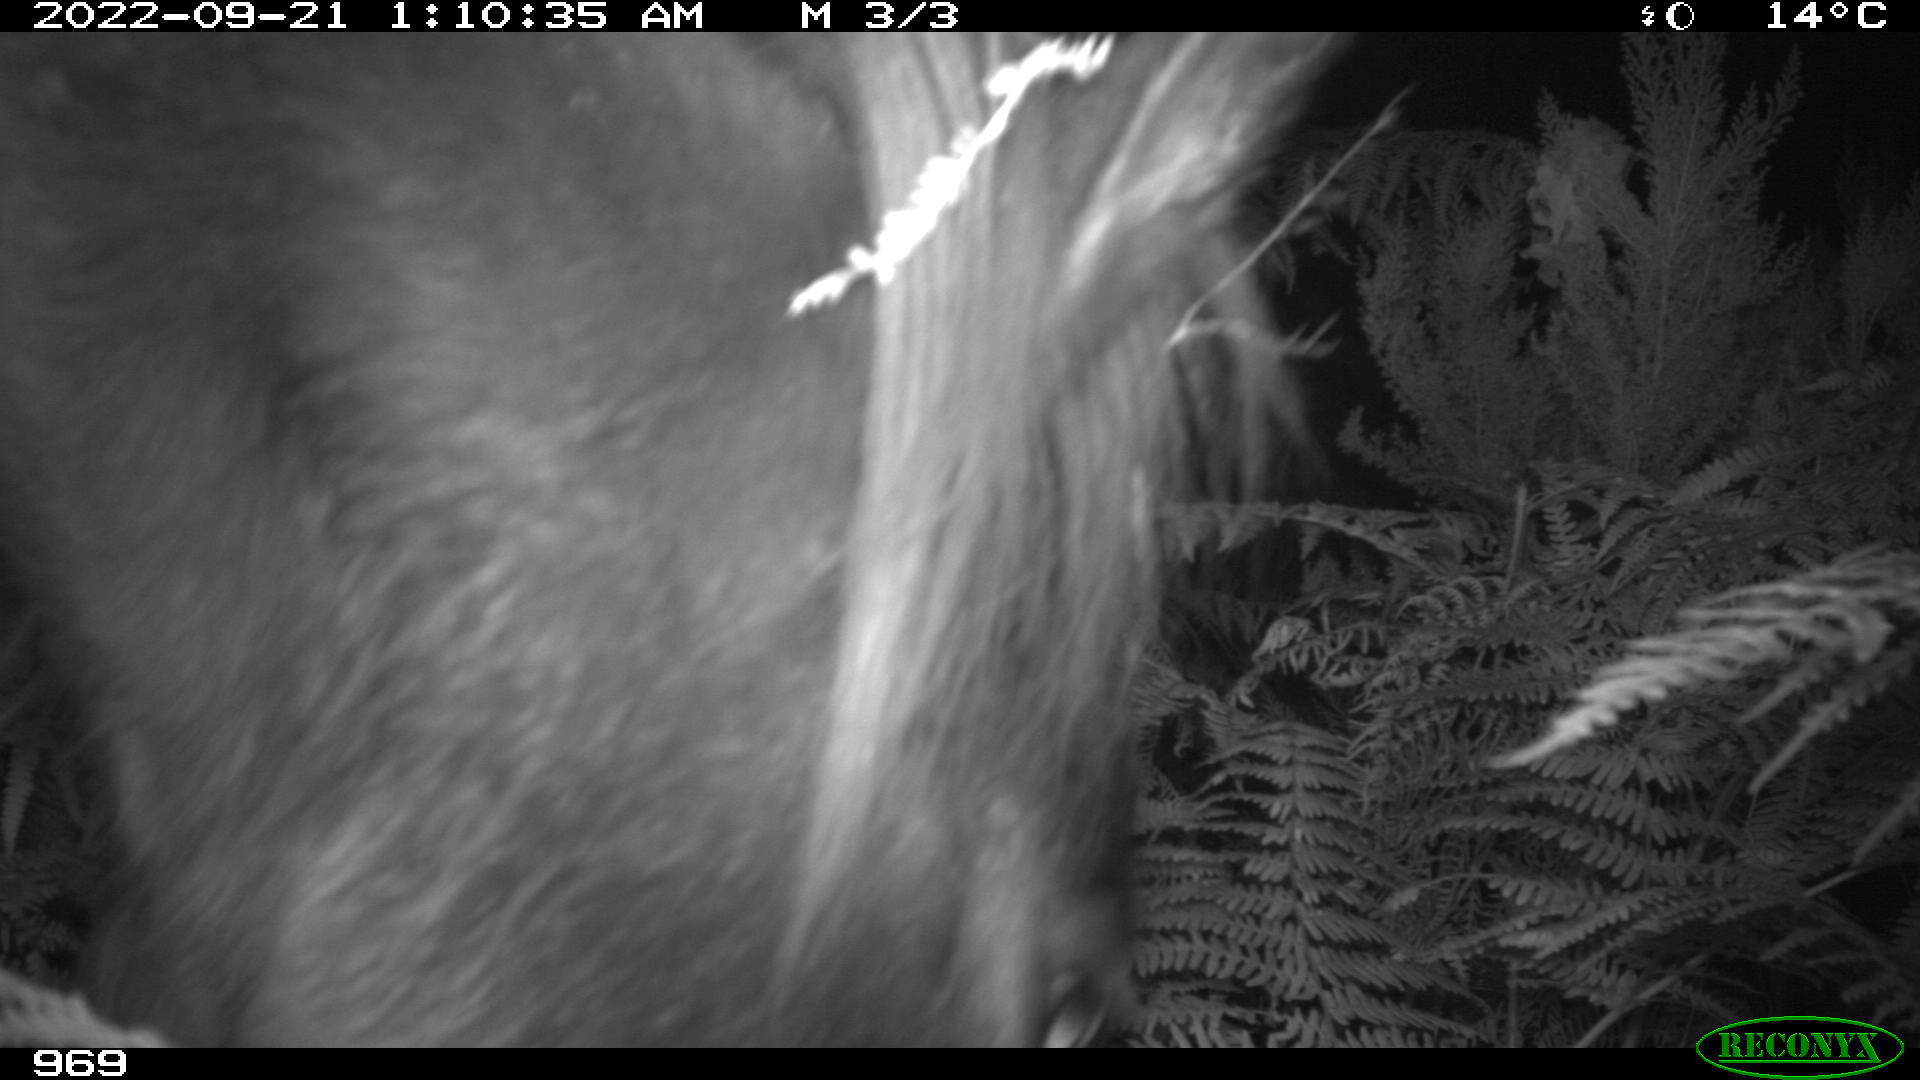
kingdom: Animalia
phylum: Chordata
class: Mammalia
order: Perissodactyla
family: Equidae
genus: Equus
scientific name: Equus caballus
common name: Horse
